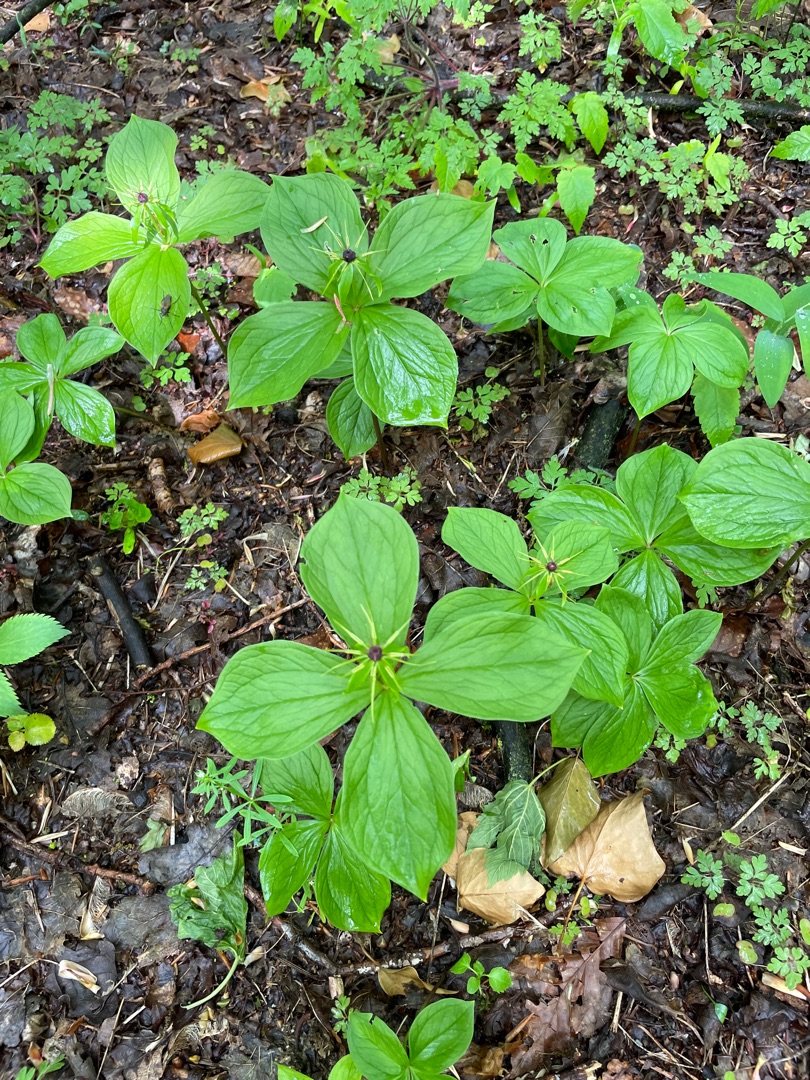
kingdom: Plantae
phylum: Tracheophyta
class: Liliopsida
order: Liliales
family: Melanthiaceae
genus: Paris
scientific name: Paris quadrifolia
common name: Firblad
